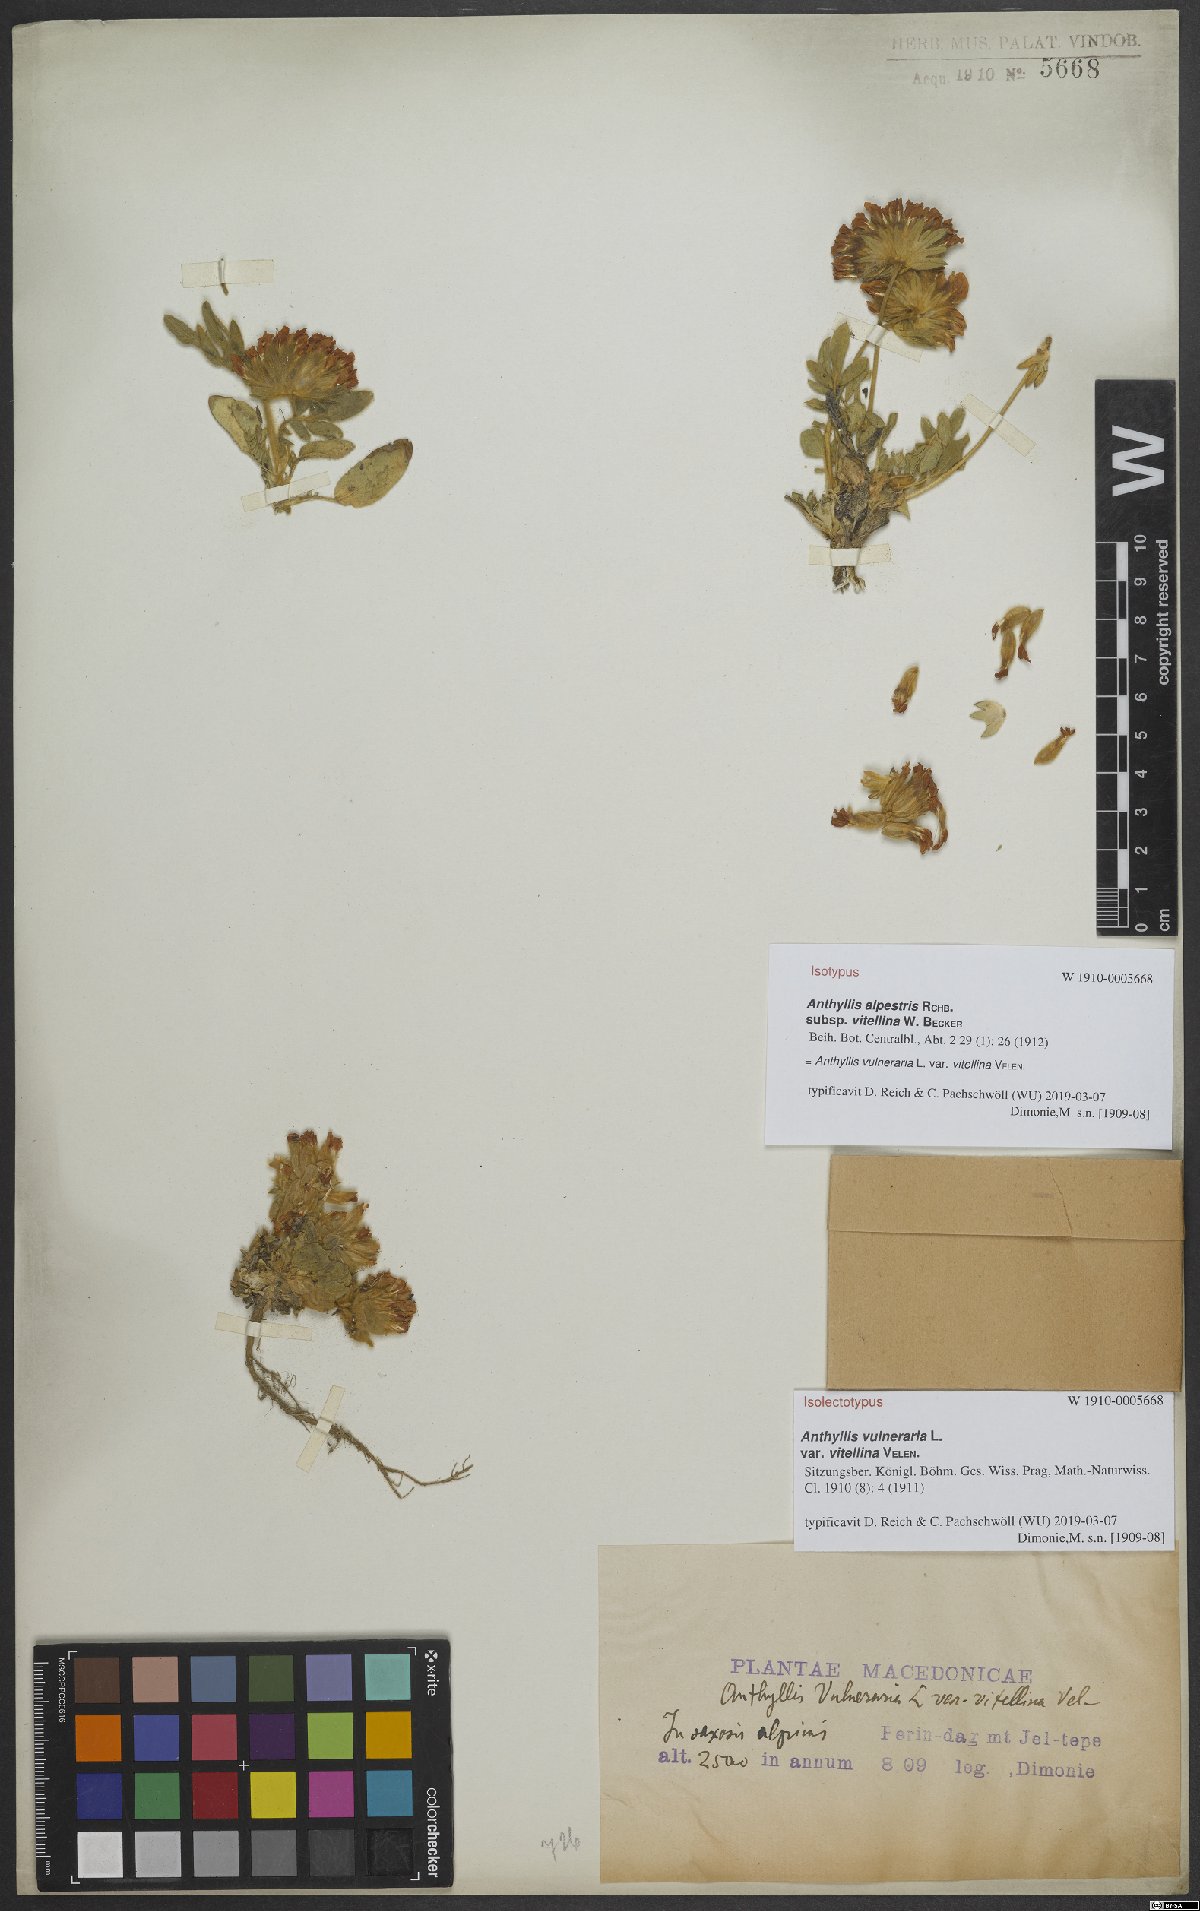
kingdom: Plantae
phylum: Tracheophyta
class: Magnoliopsida
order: Fabales
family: Fabaceae
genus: Anthyllis
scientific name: Anthyllis vulneraria
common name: Kidney vetch
